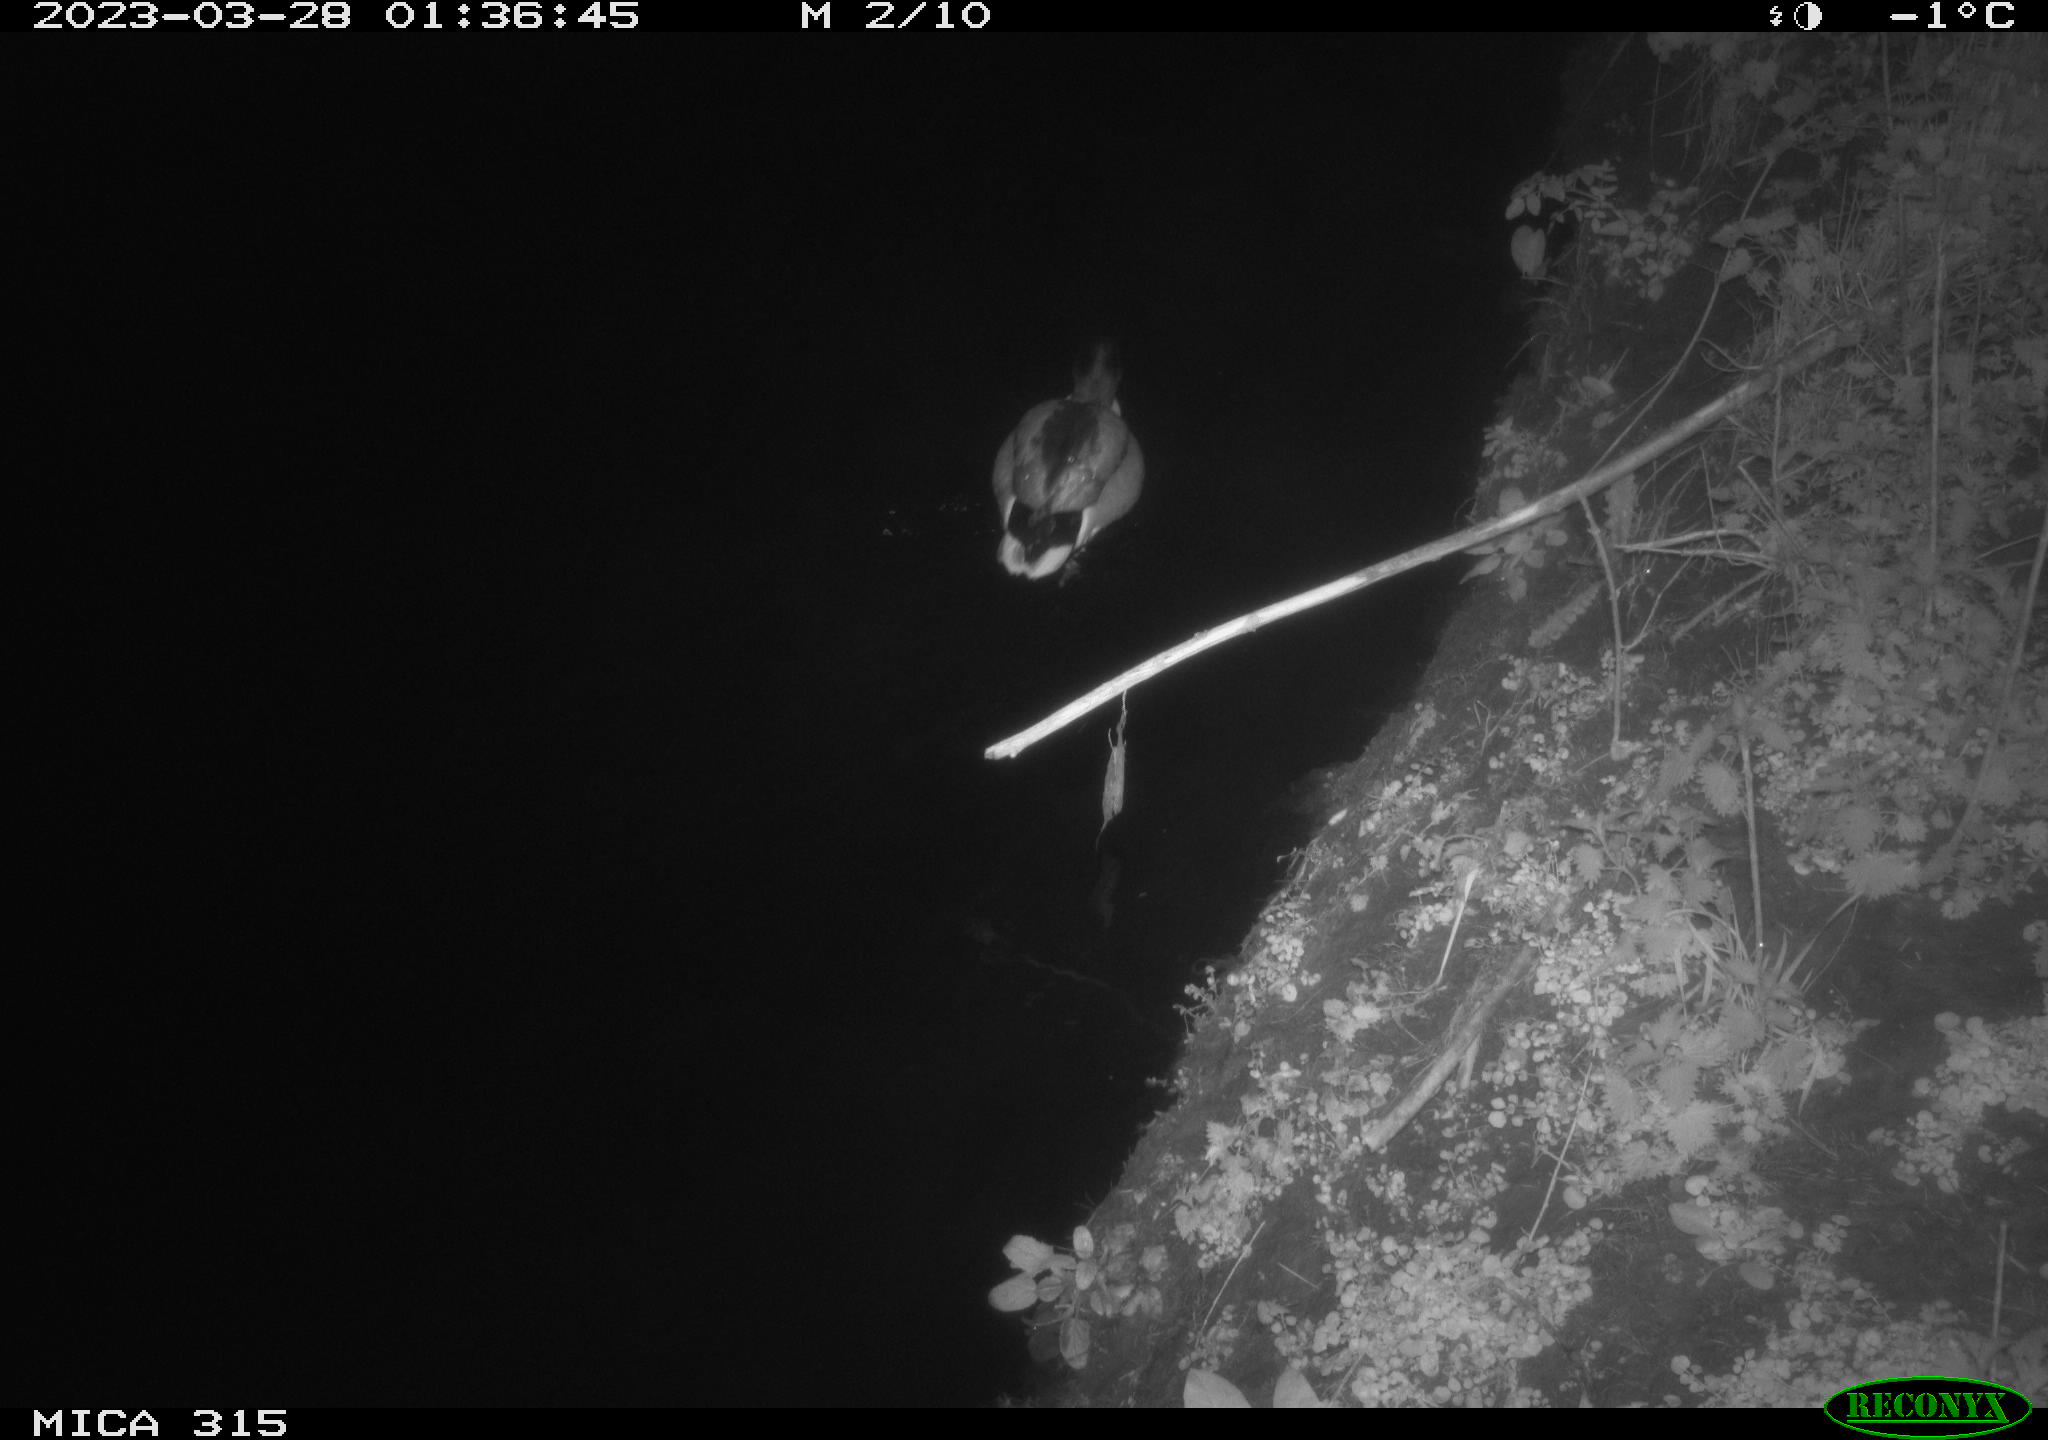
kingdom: Animalia
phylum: Chordata
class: Aves
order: Anseriformes
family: Anatidae
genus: Anas
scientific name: Anas
